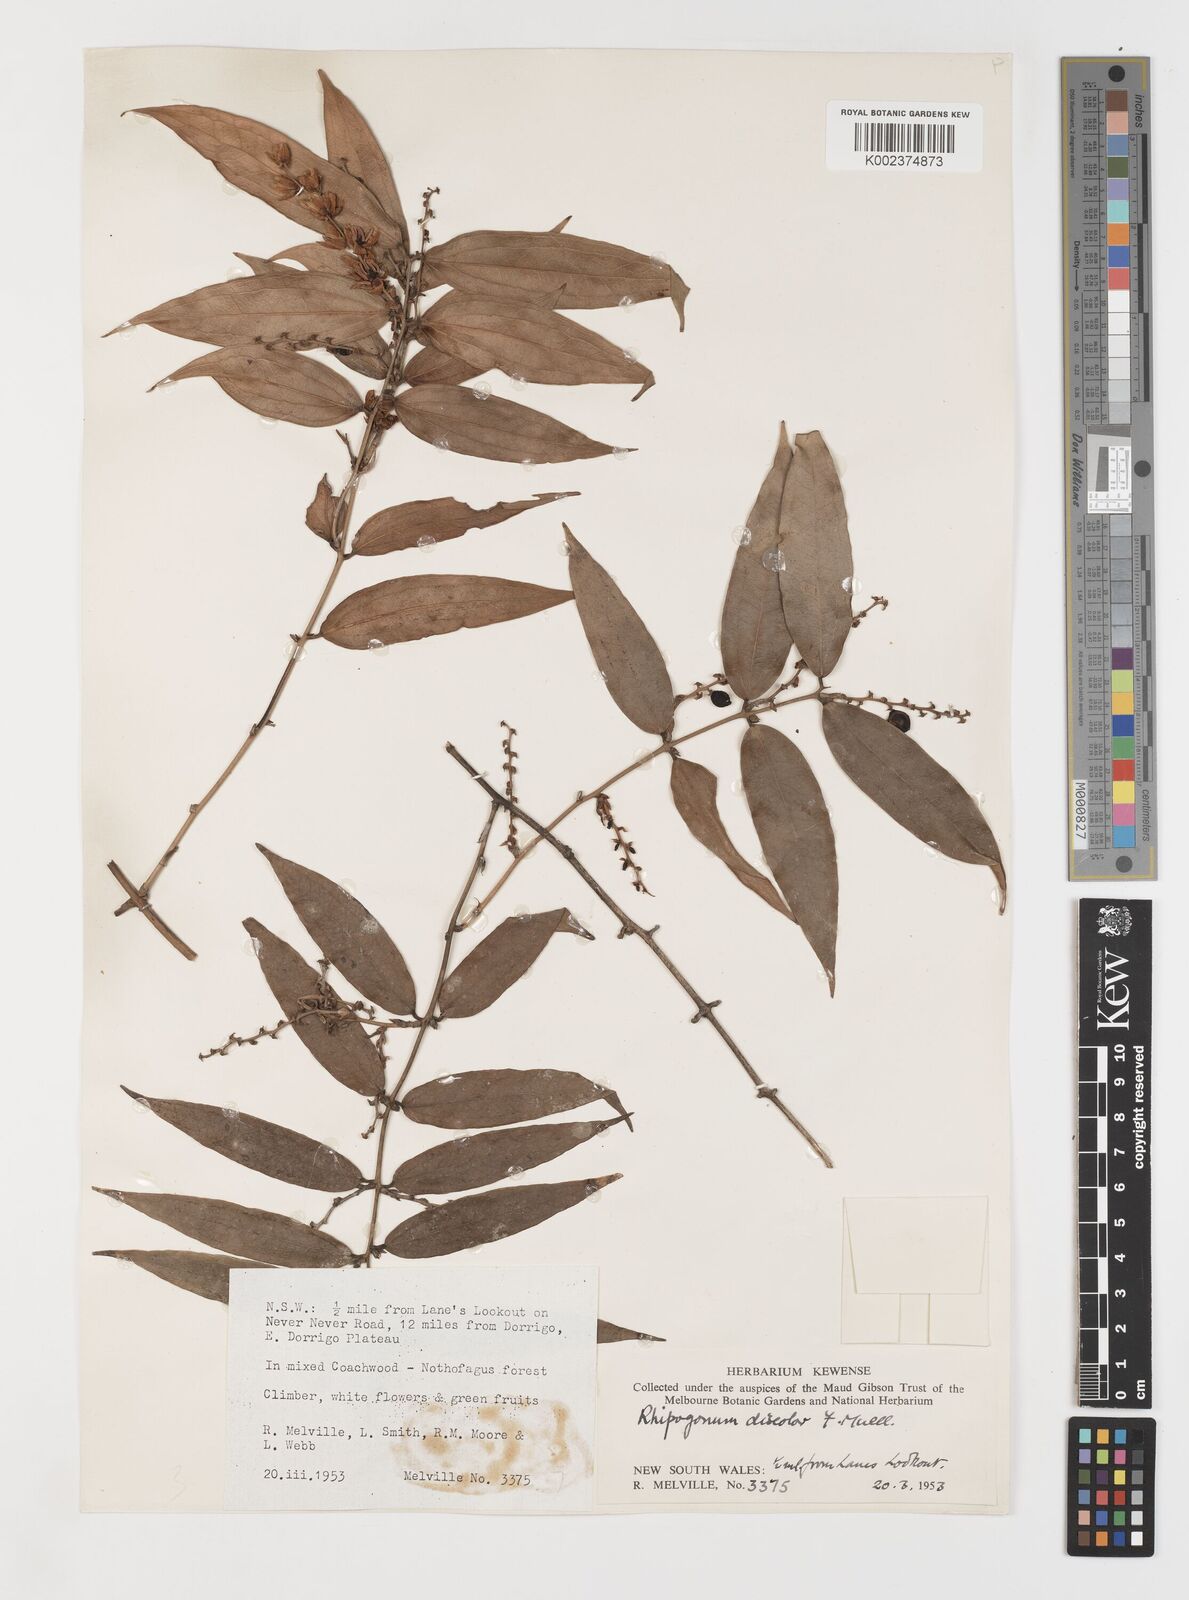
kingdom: Plantae
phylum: Tracheophyta
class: Liliopsida
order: Liliales
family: Ripogonaceae
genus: Ripogonum
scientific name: Ripogonum discolor
